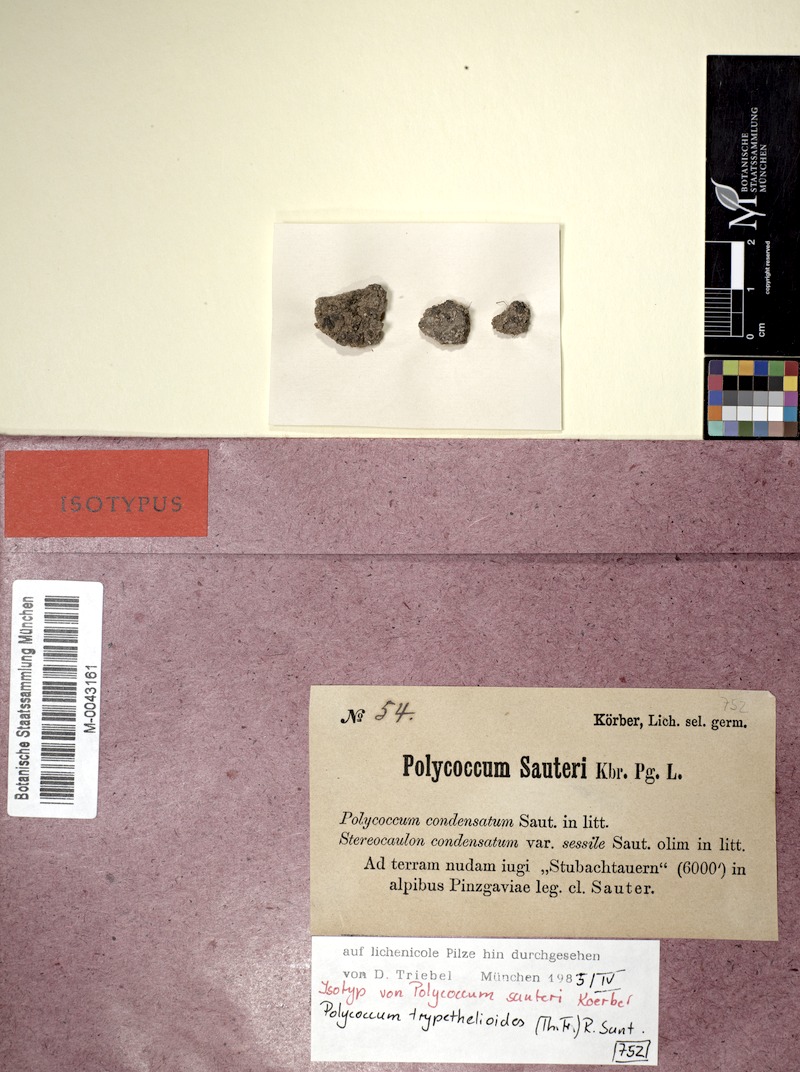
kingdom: Fungi
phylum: Ascomycota
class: Dothideomycetes
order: Trypetheliales
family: Polycoccaceae
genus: Polycoccum
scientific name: Polycoccum sauteri
